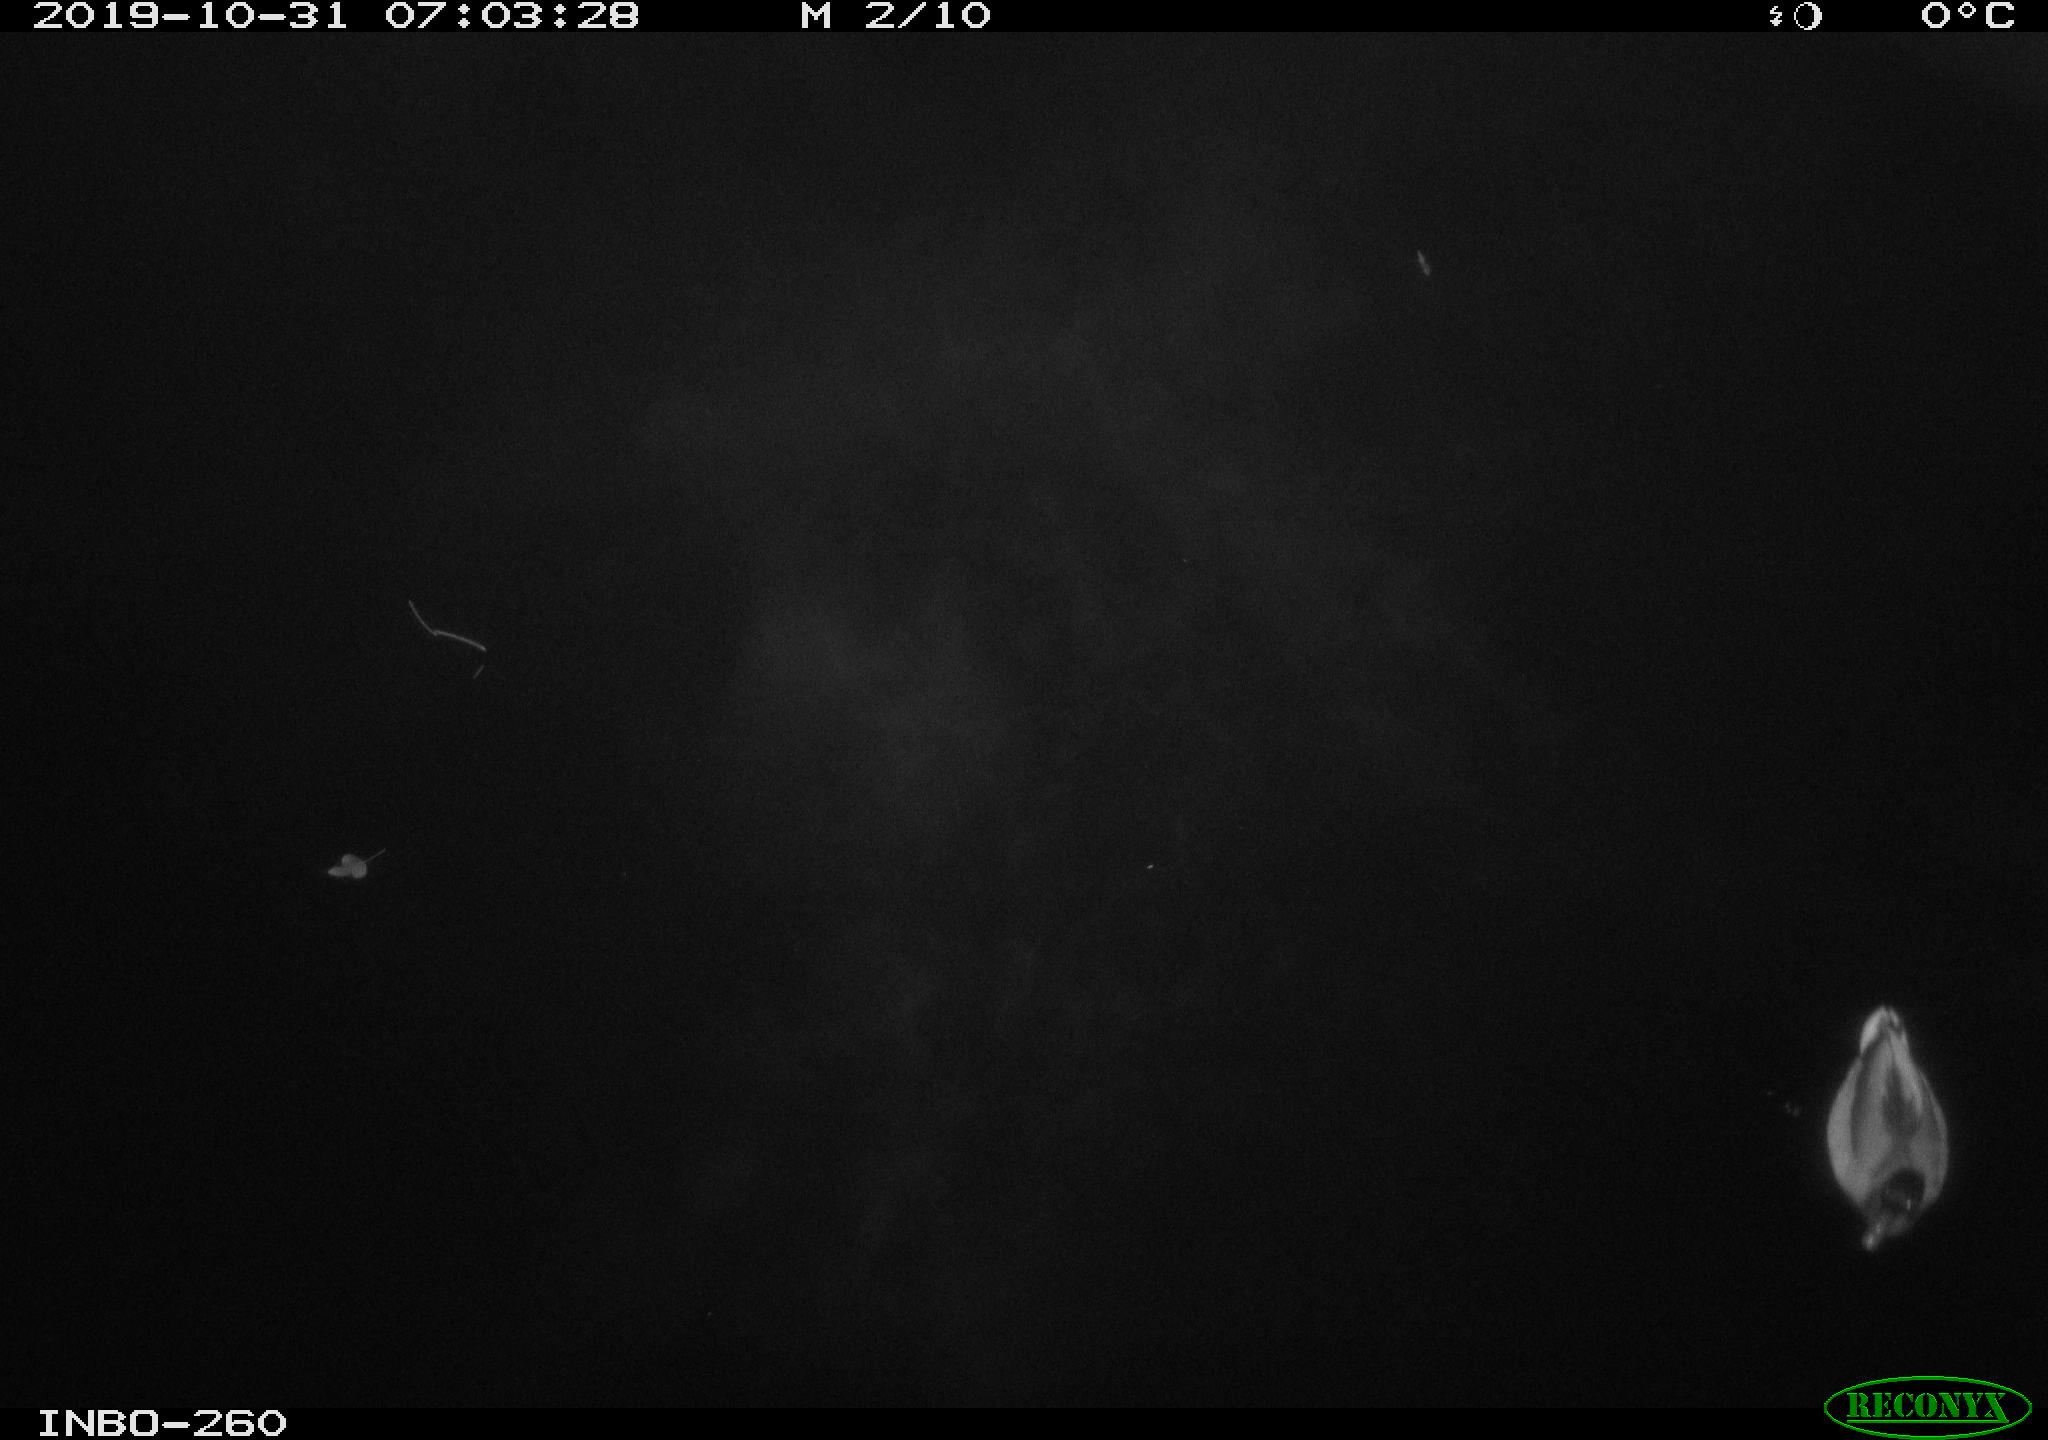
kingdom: Animalia
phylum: Chordata
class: Aves
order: Anseriformes
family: Anatidae
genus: Anas
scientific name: Anas platyrhynchos
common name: Mallard
